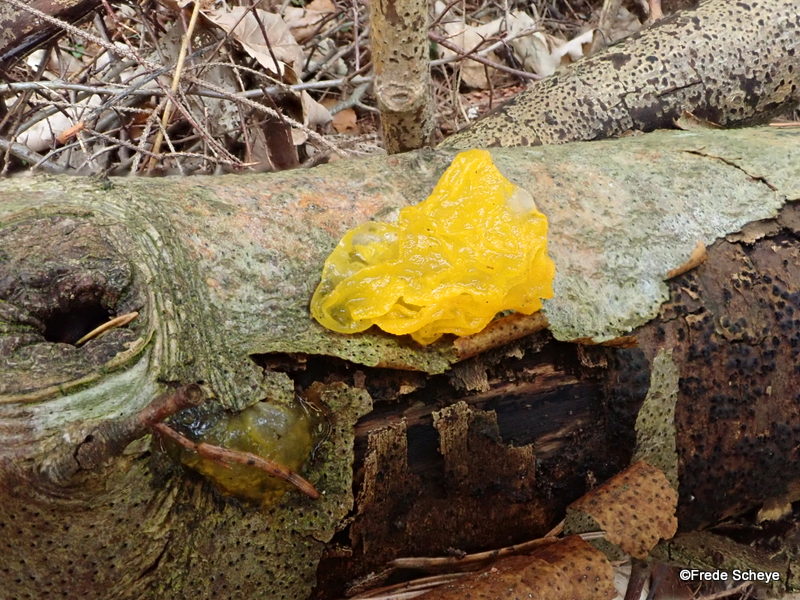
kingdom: Fungi
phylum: Basidiomycota
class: Tremellomycetes
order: Tremellales
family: Tremellaceae
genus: Tremella
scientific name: Tremella mesenterica
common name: gul bævresvamp
